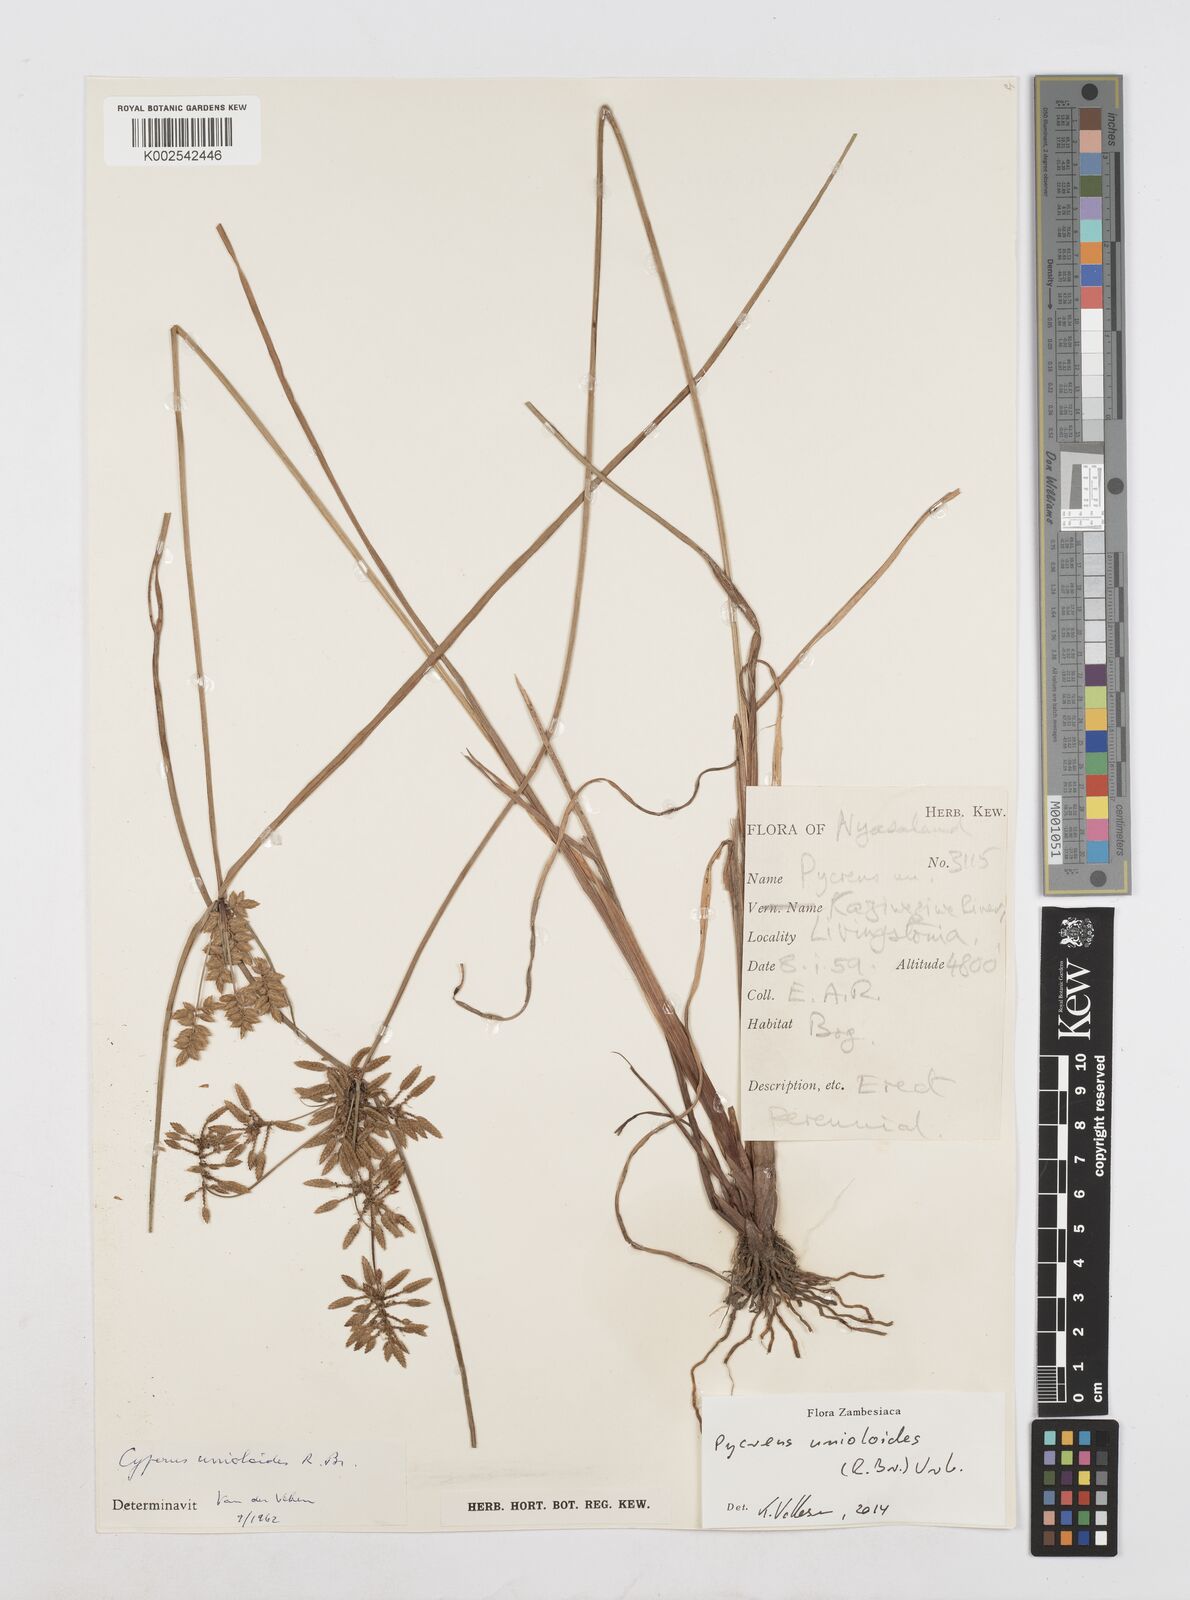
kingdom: Plantae
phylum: Tracheophyta
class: Liliopsida
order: Poales
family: Cyperaceae
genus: Cyperus
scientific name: Cyperus unioloides
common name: Uniola flatsedge
